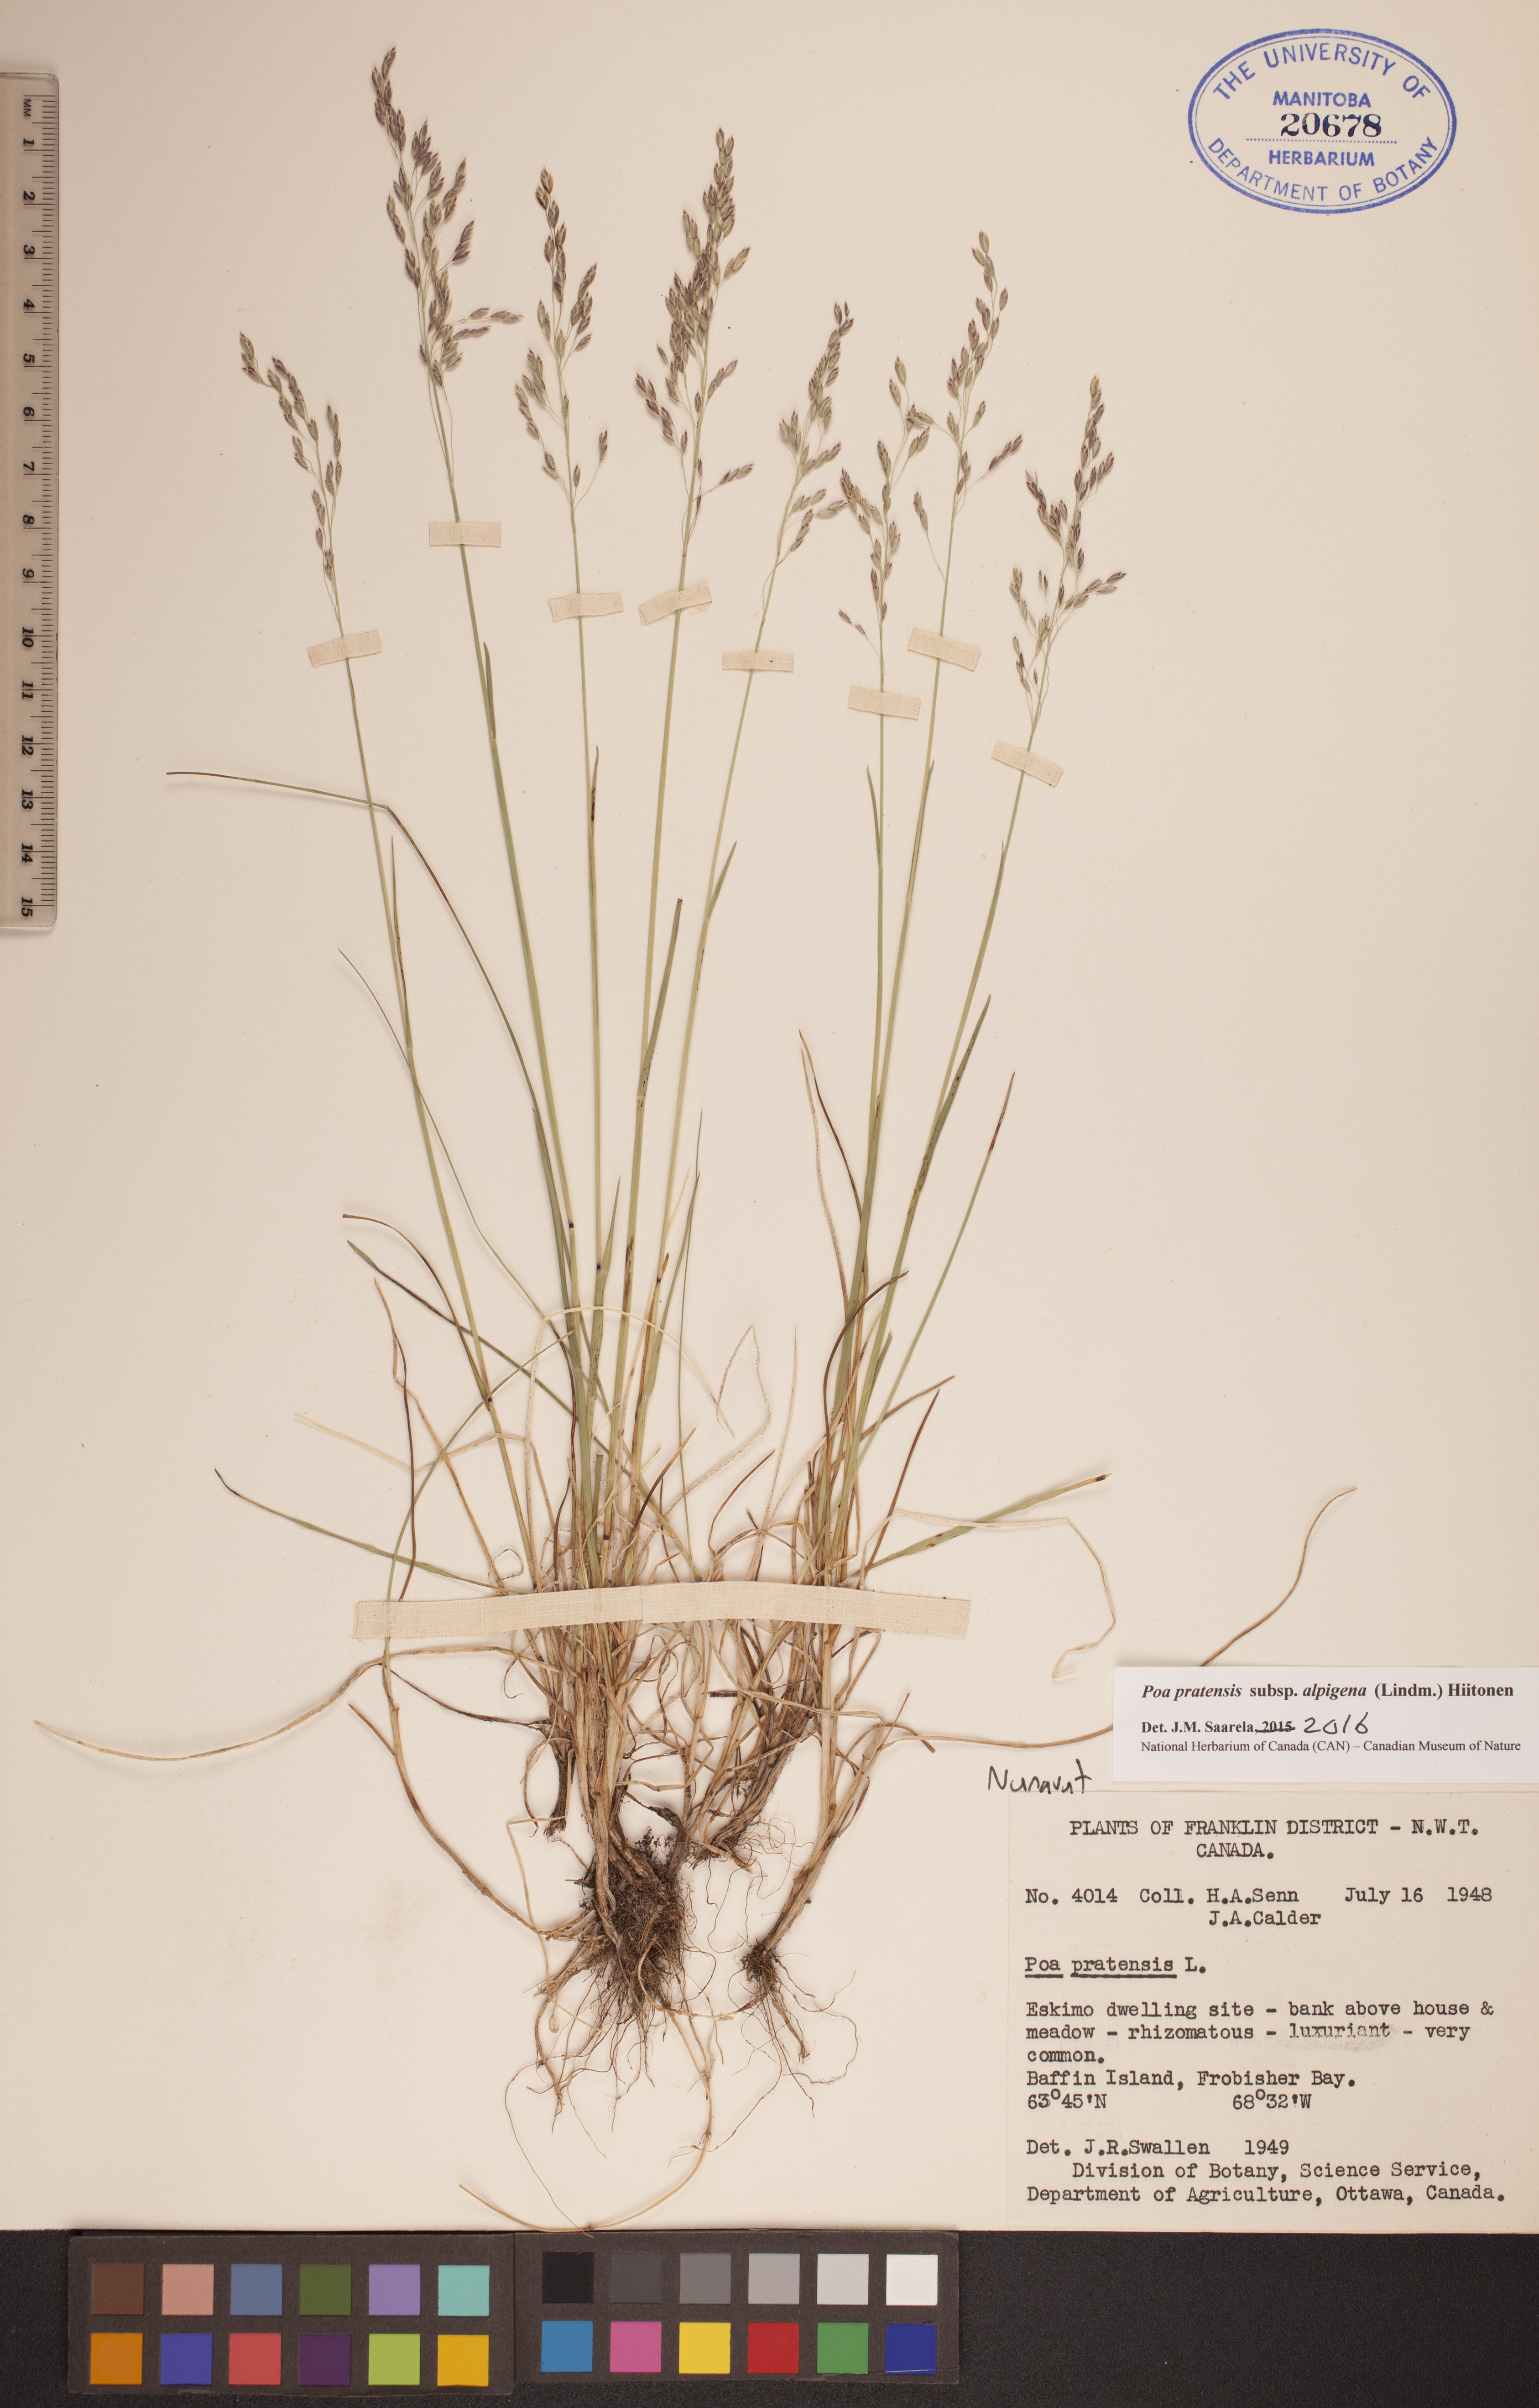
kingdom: Plantae
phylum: Tracheophyta
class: Liliopsida
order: Poales
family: Poaceae
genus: Poa
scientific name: Poa alpigena
